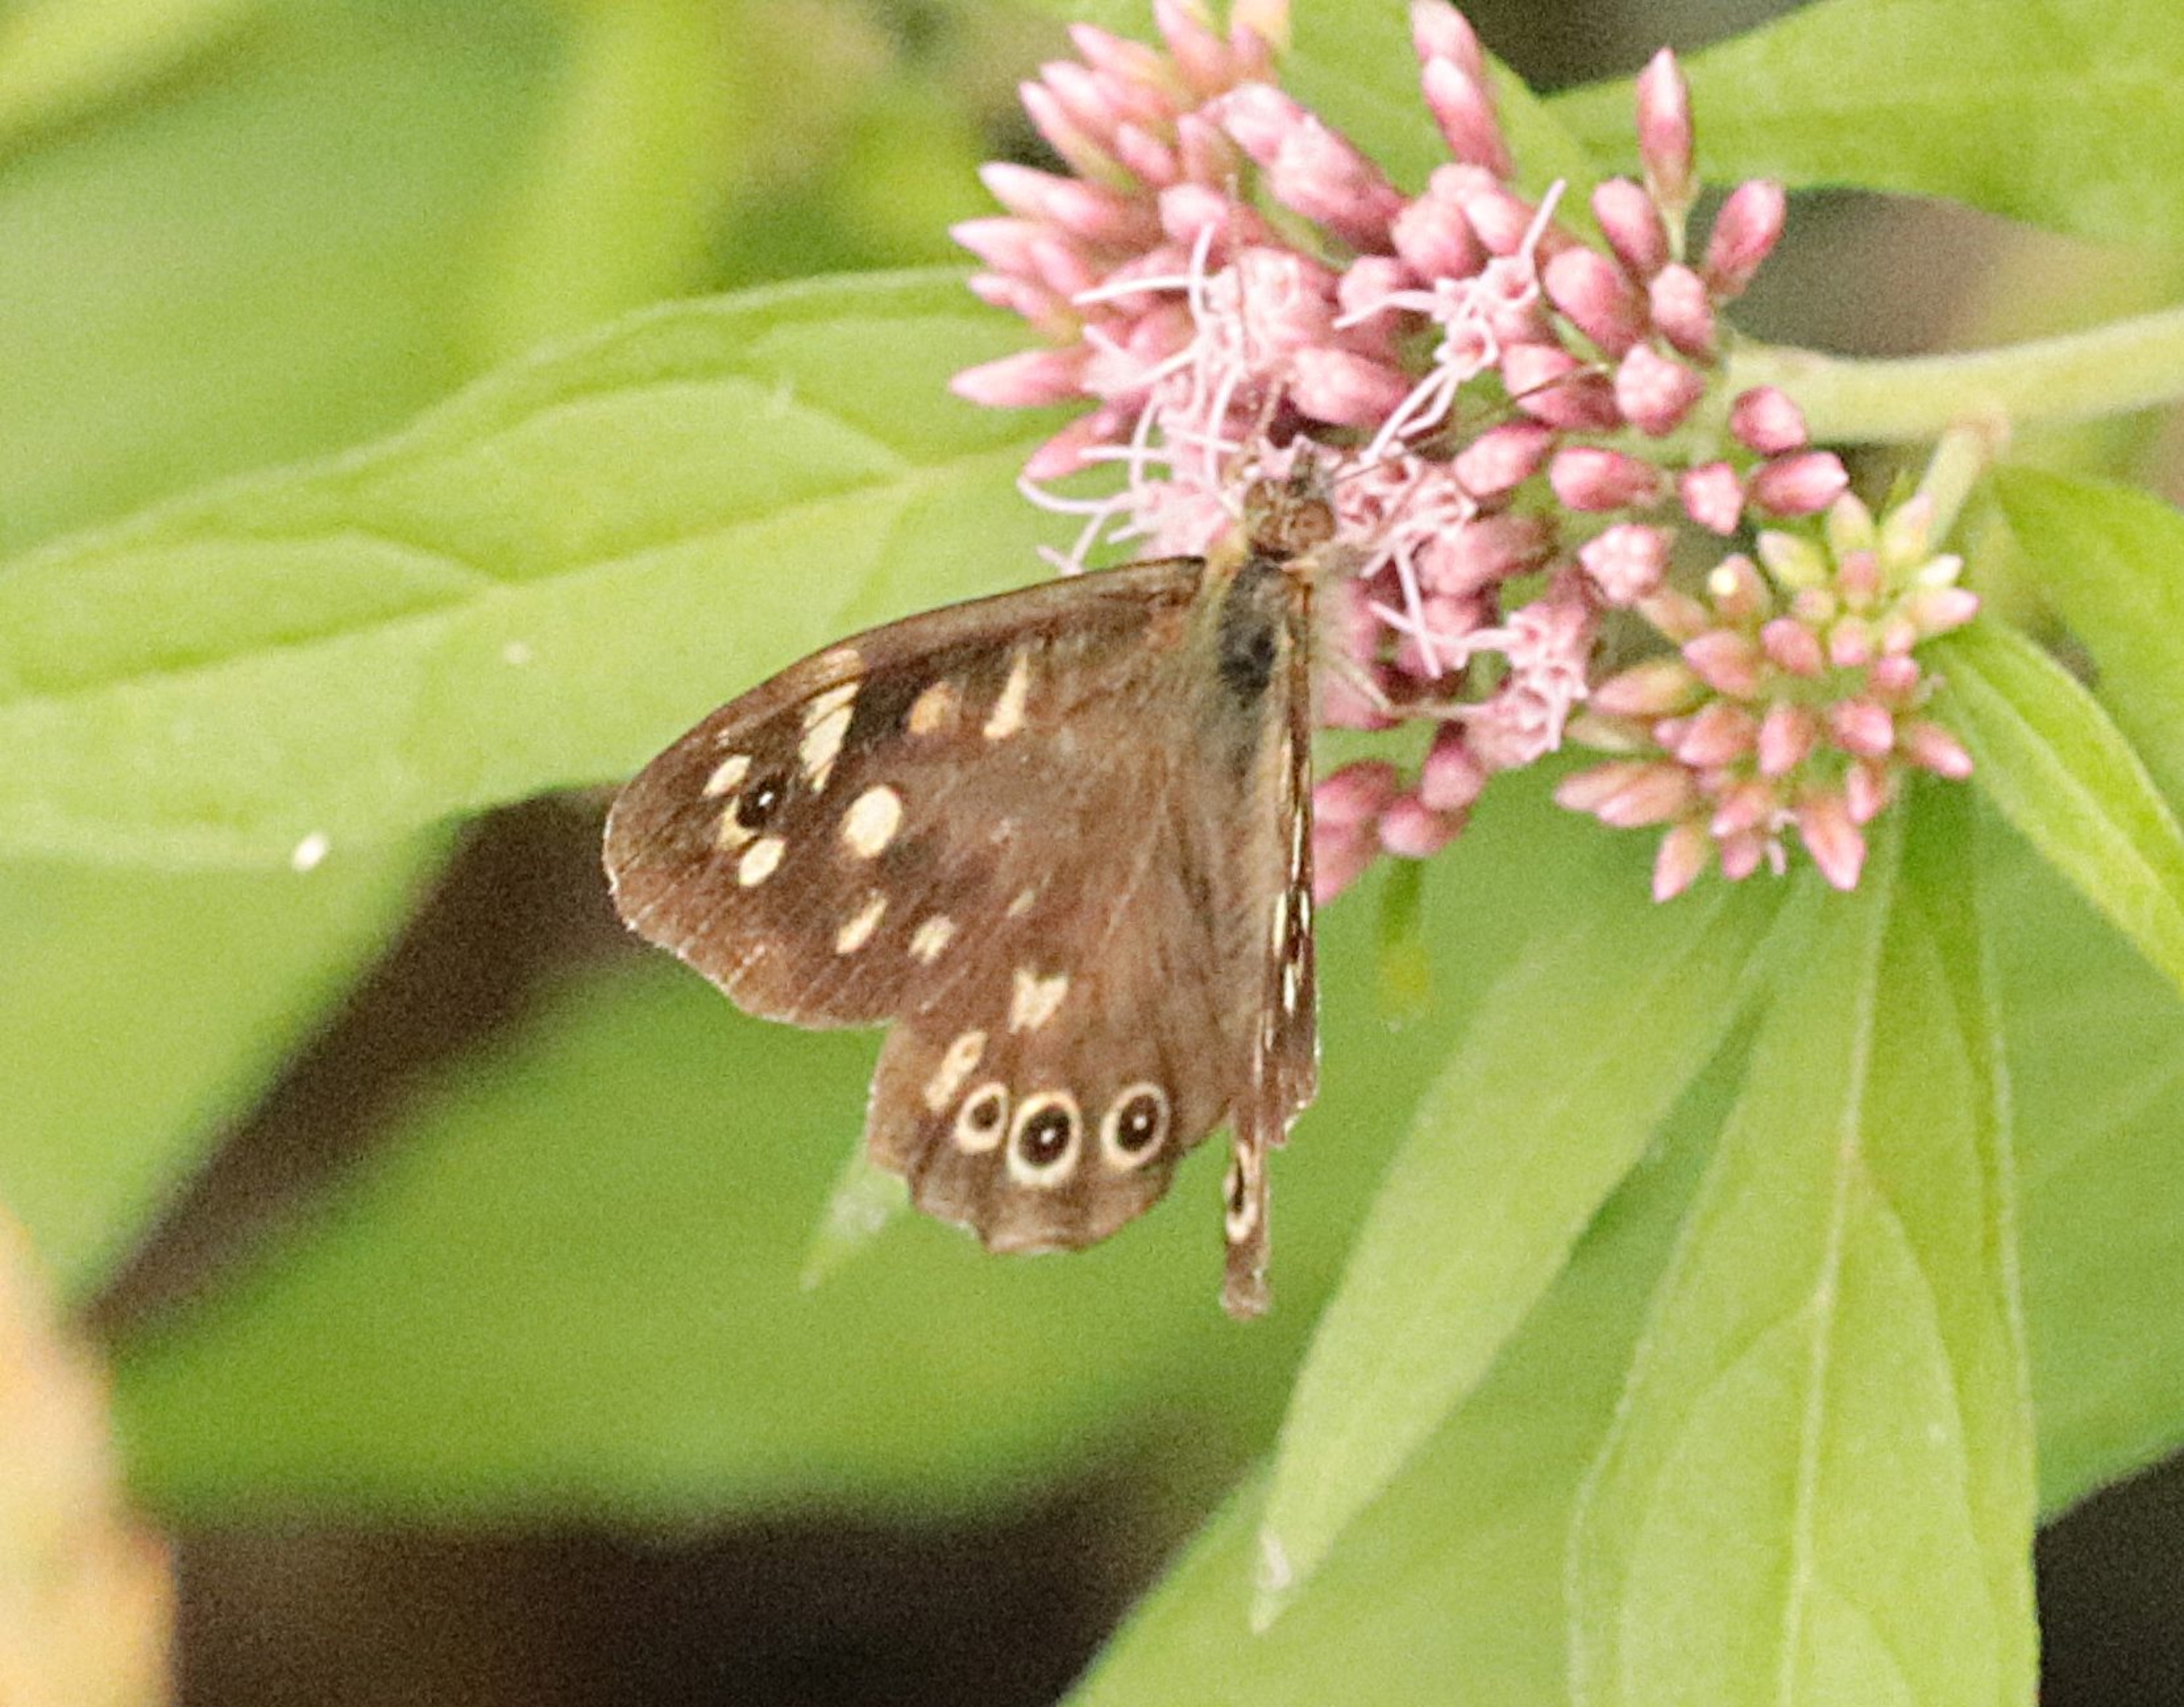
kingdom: Animalia
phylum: Arthropoda
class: Insecta
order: Lepidoptera
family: Nymphalidae
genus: Pararge
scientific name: Pararge aegeria
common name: Skovrandøje
